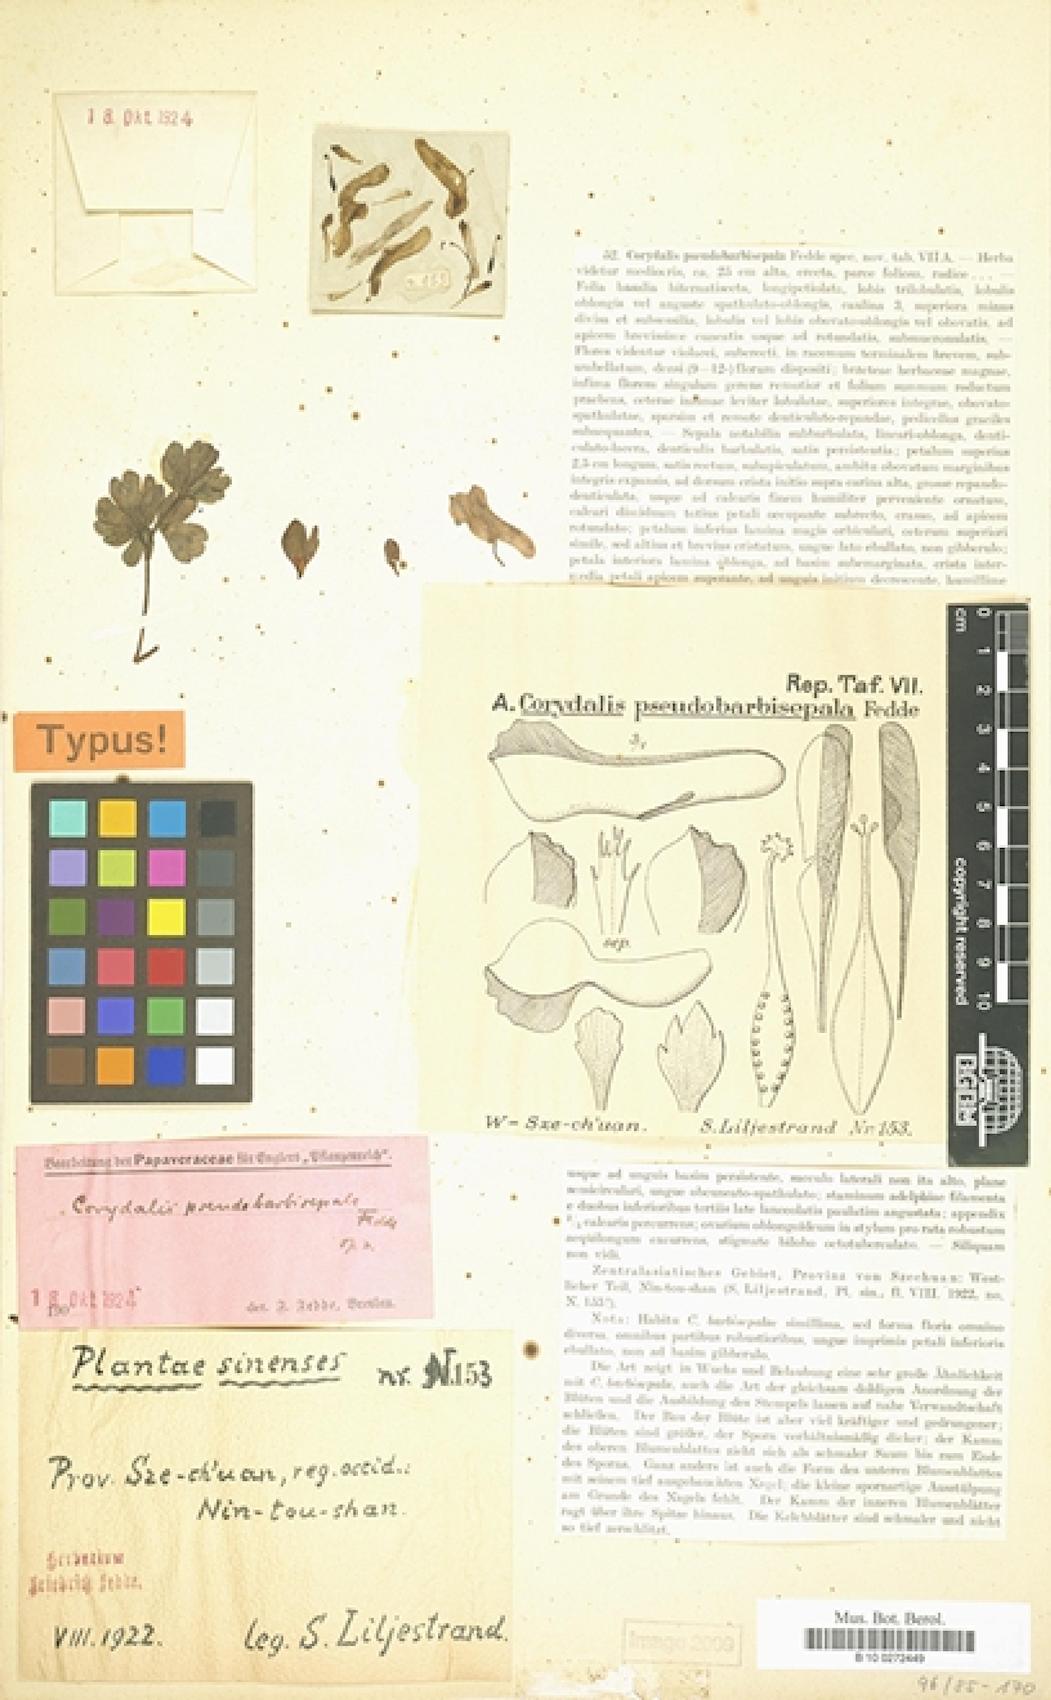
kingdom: Plantae
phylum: Tracheophyta
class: Magnoliopsida
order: Ranunculales
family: Papaveraceae
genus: Corydalis
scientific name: Corydalis pseudobarbisepala
